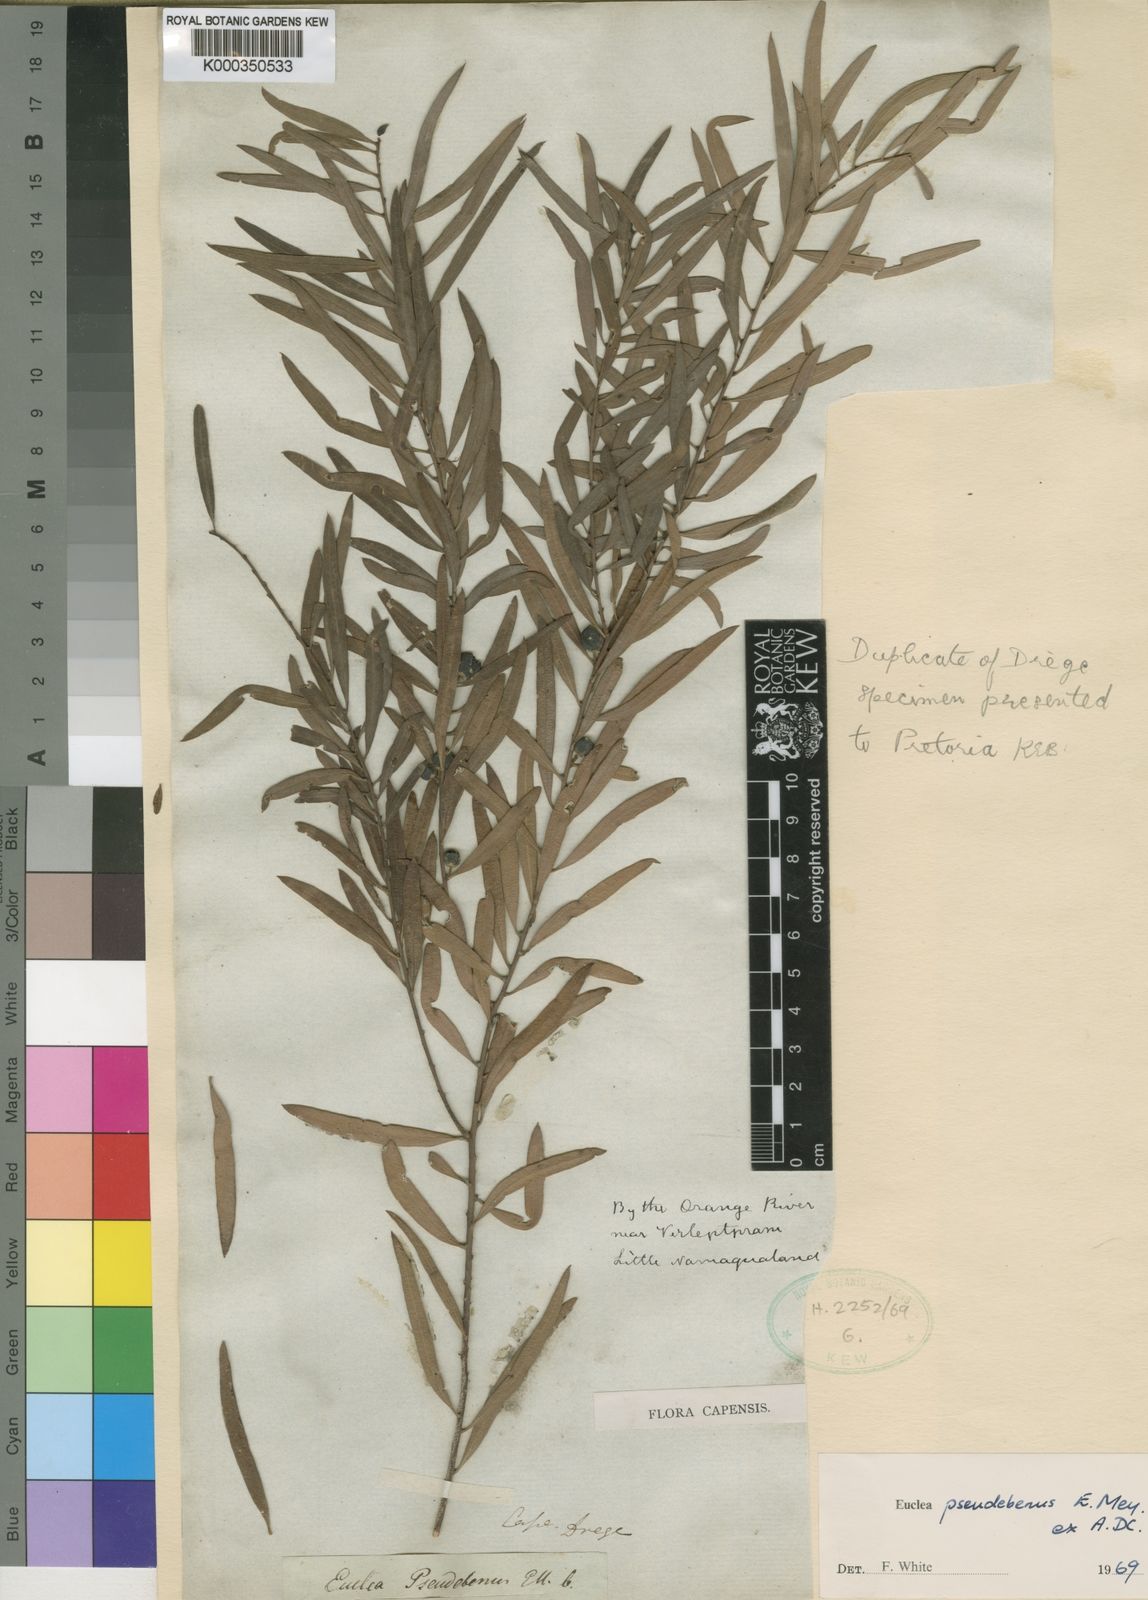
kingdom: Plantae
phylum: Tracheophyta
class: Magnoliopsida
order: Ericales
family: Ebenaceae
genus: Euclea
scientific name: Euclea
